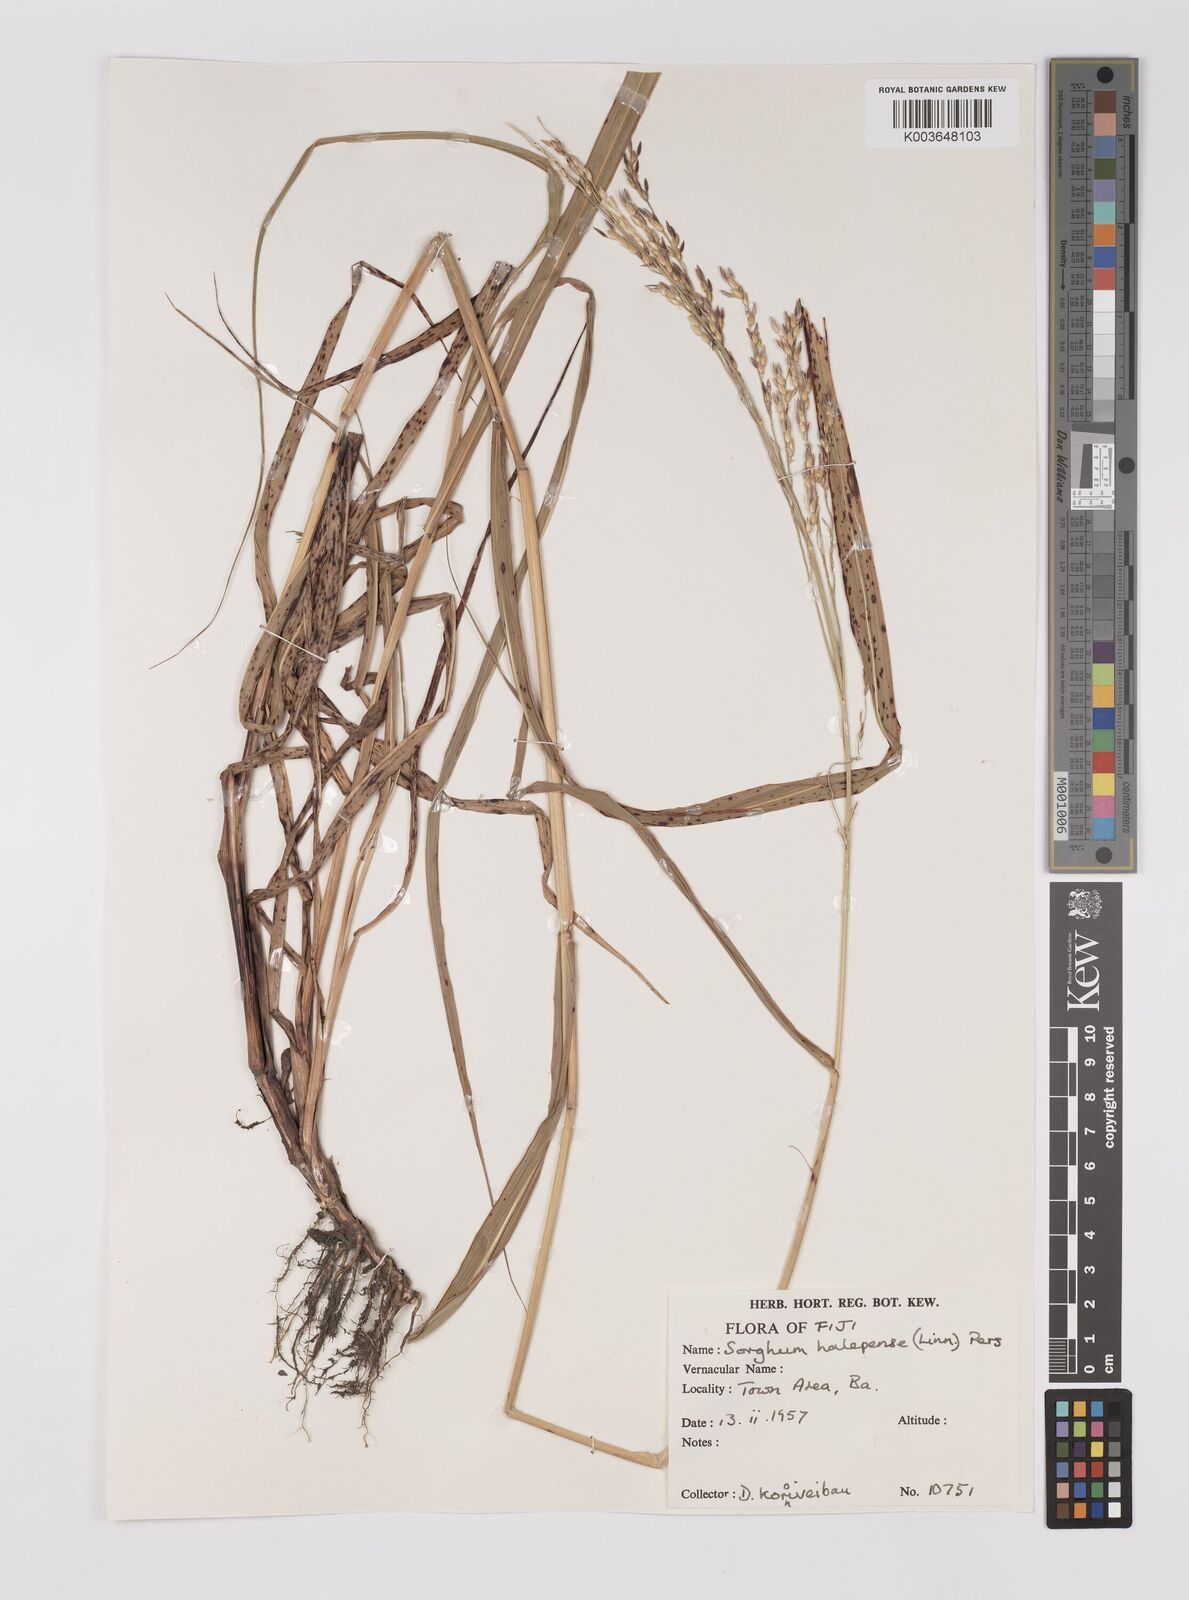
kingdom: Plantae
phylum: Tracheophyta
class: Liliopsida
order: Poales
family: Poaceae
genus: Sorghum
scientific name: Sorghum halepense
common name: Johnson-grass
